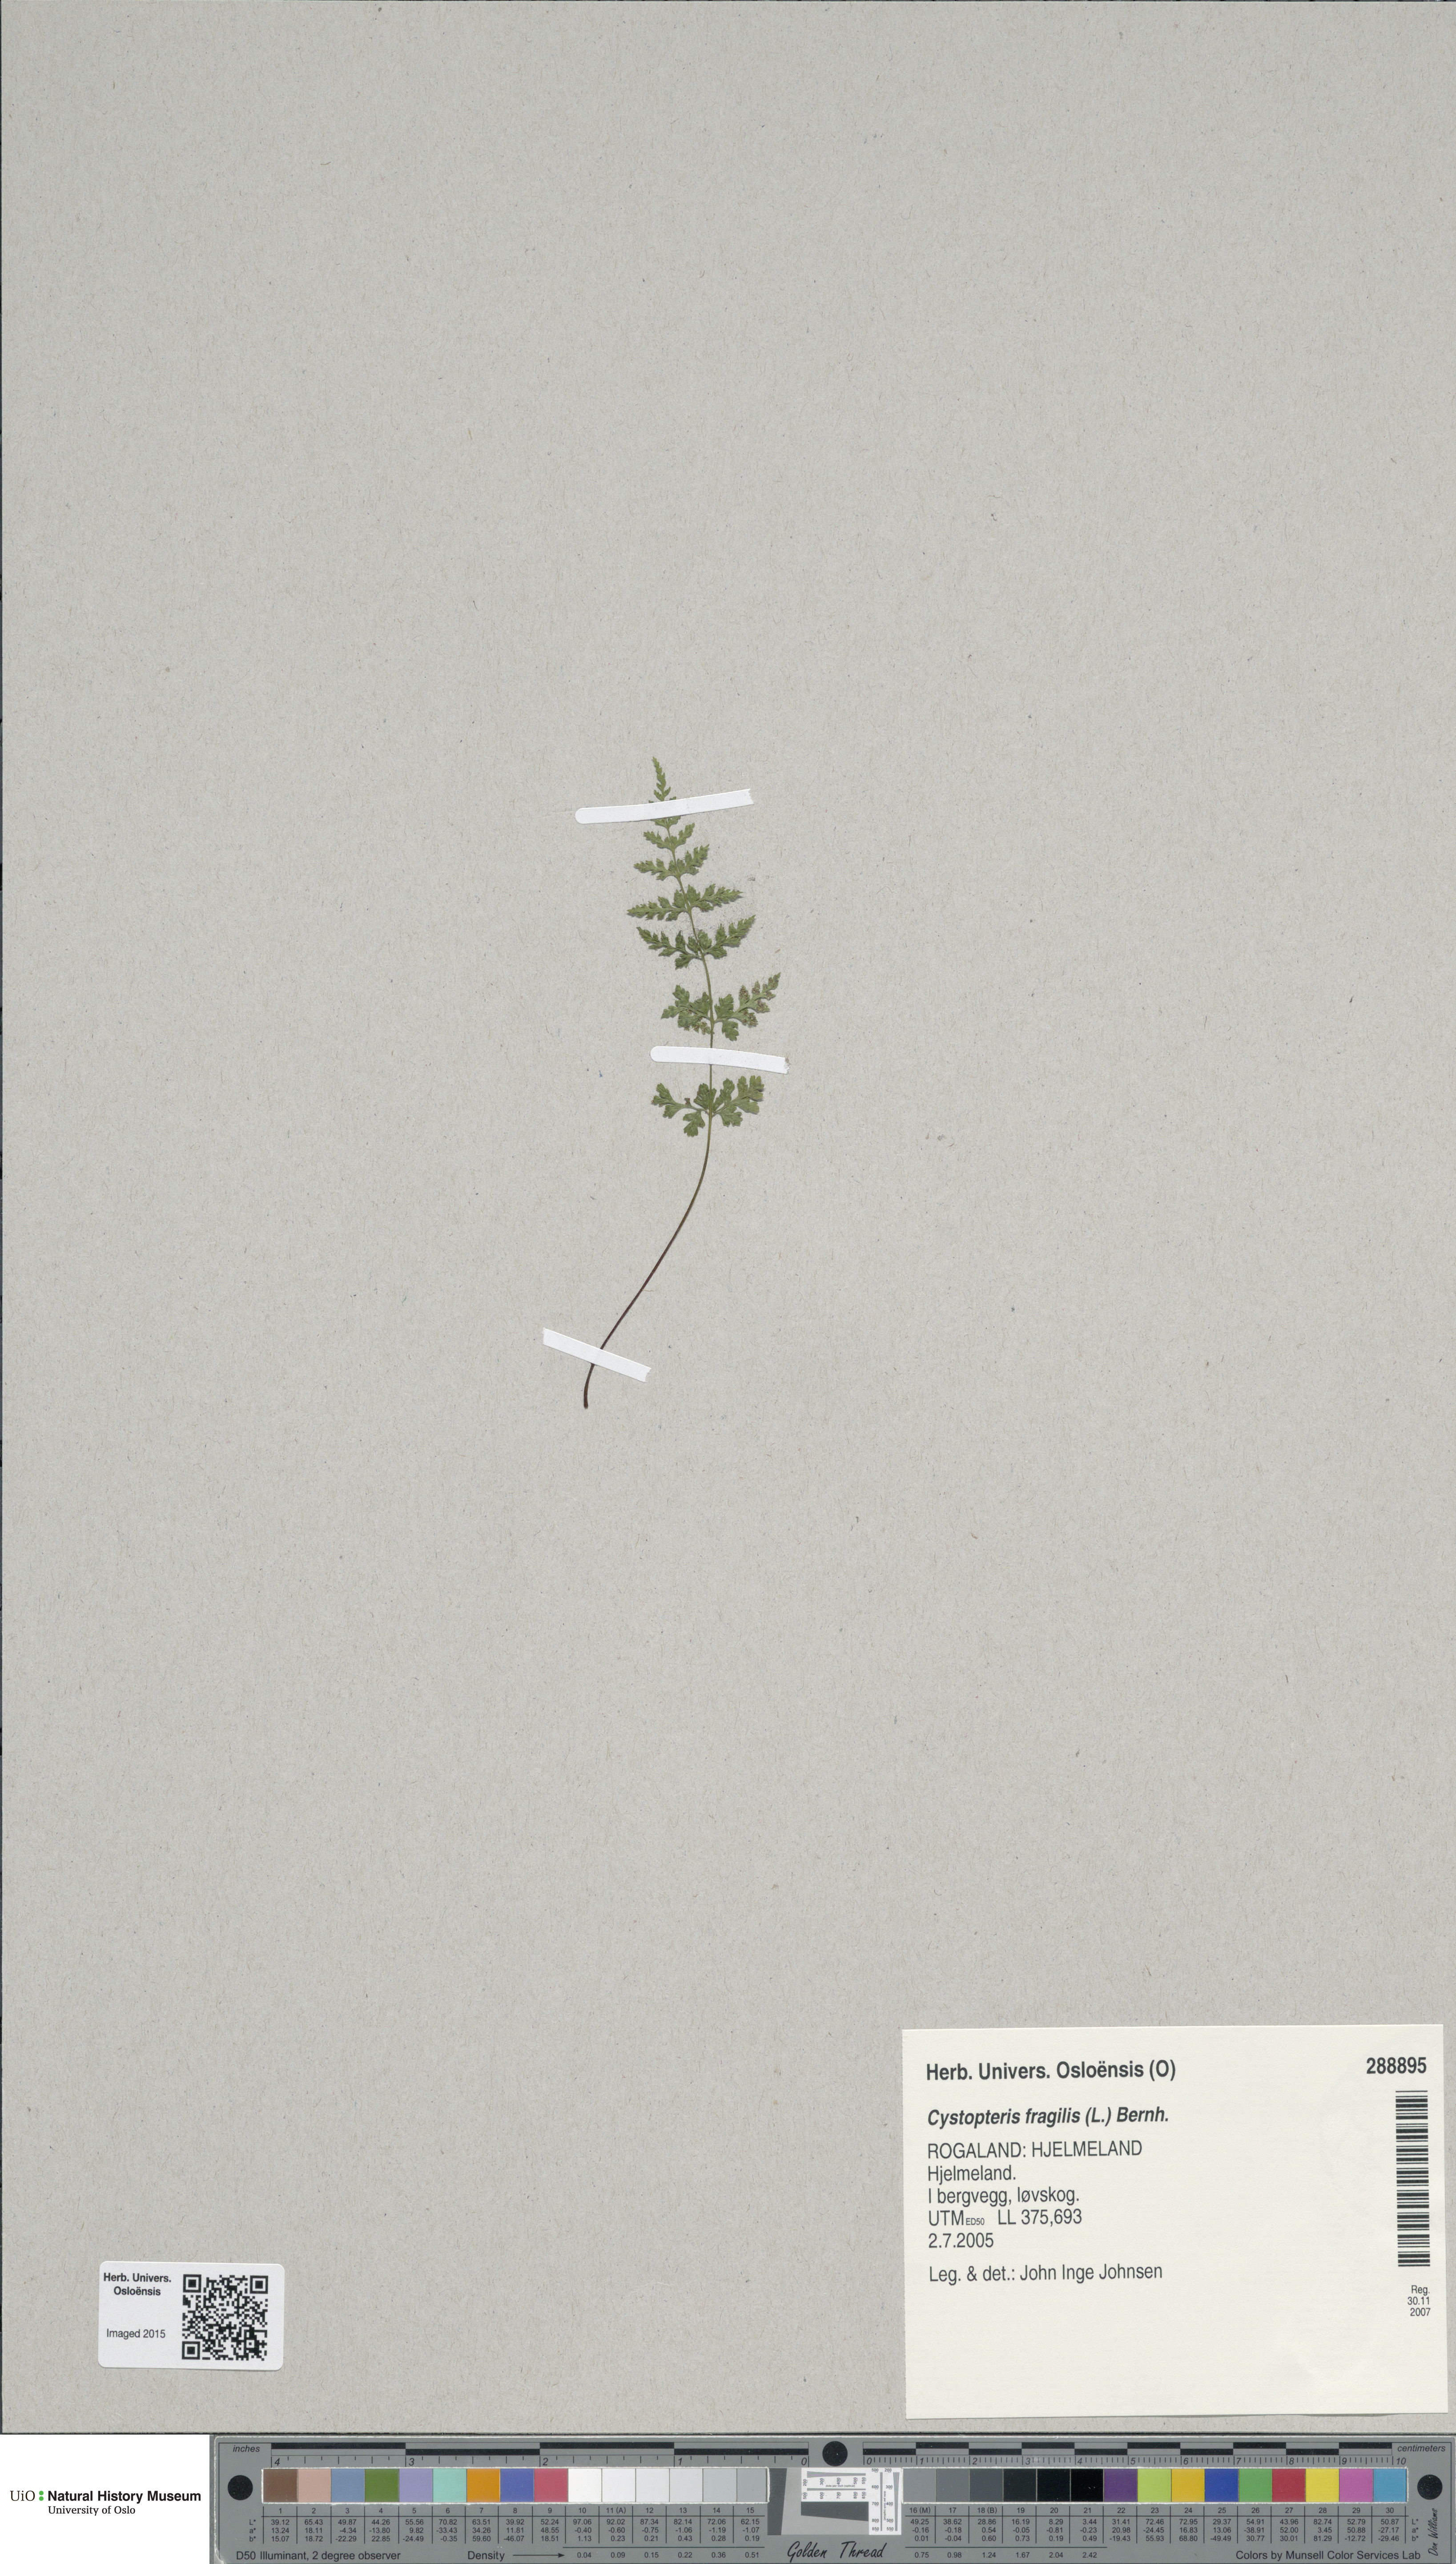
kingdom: Plantae
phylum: Tracheophyta
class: Polypodiopsida
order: Polypodiales
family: Cystopteridaceae
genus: Cystopteris
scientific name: Cystopteris fragilis
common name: Brittle bladder fern
